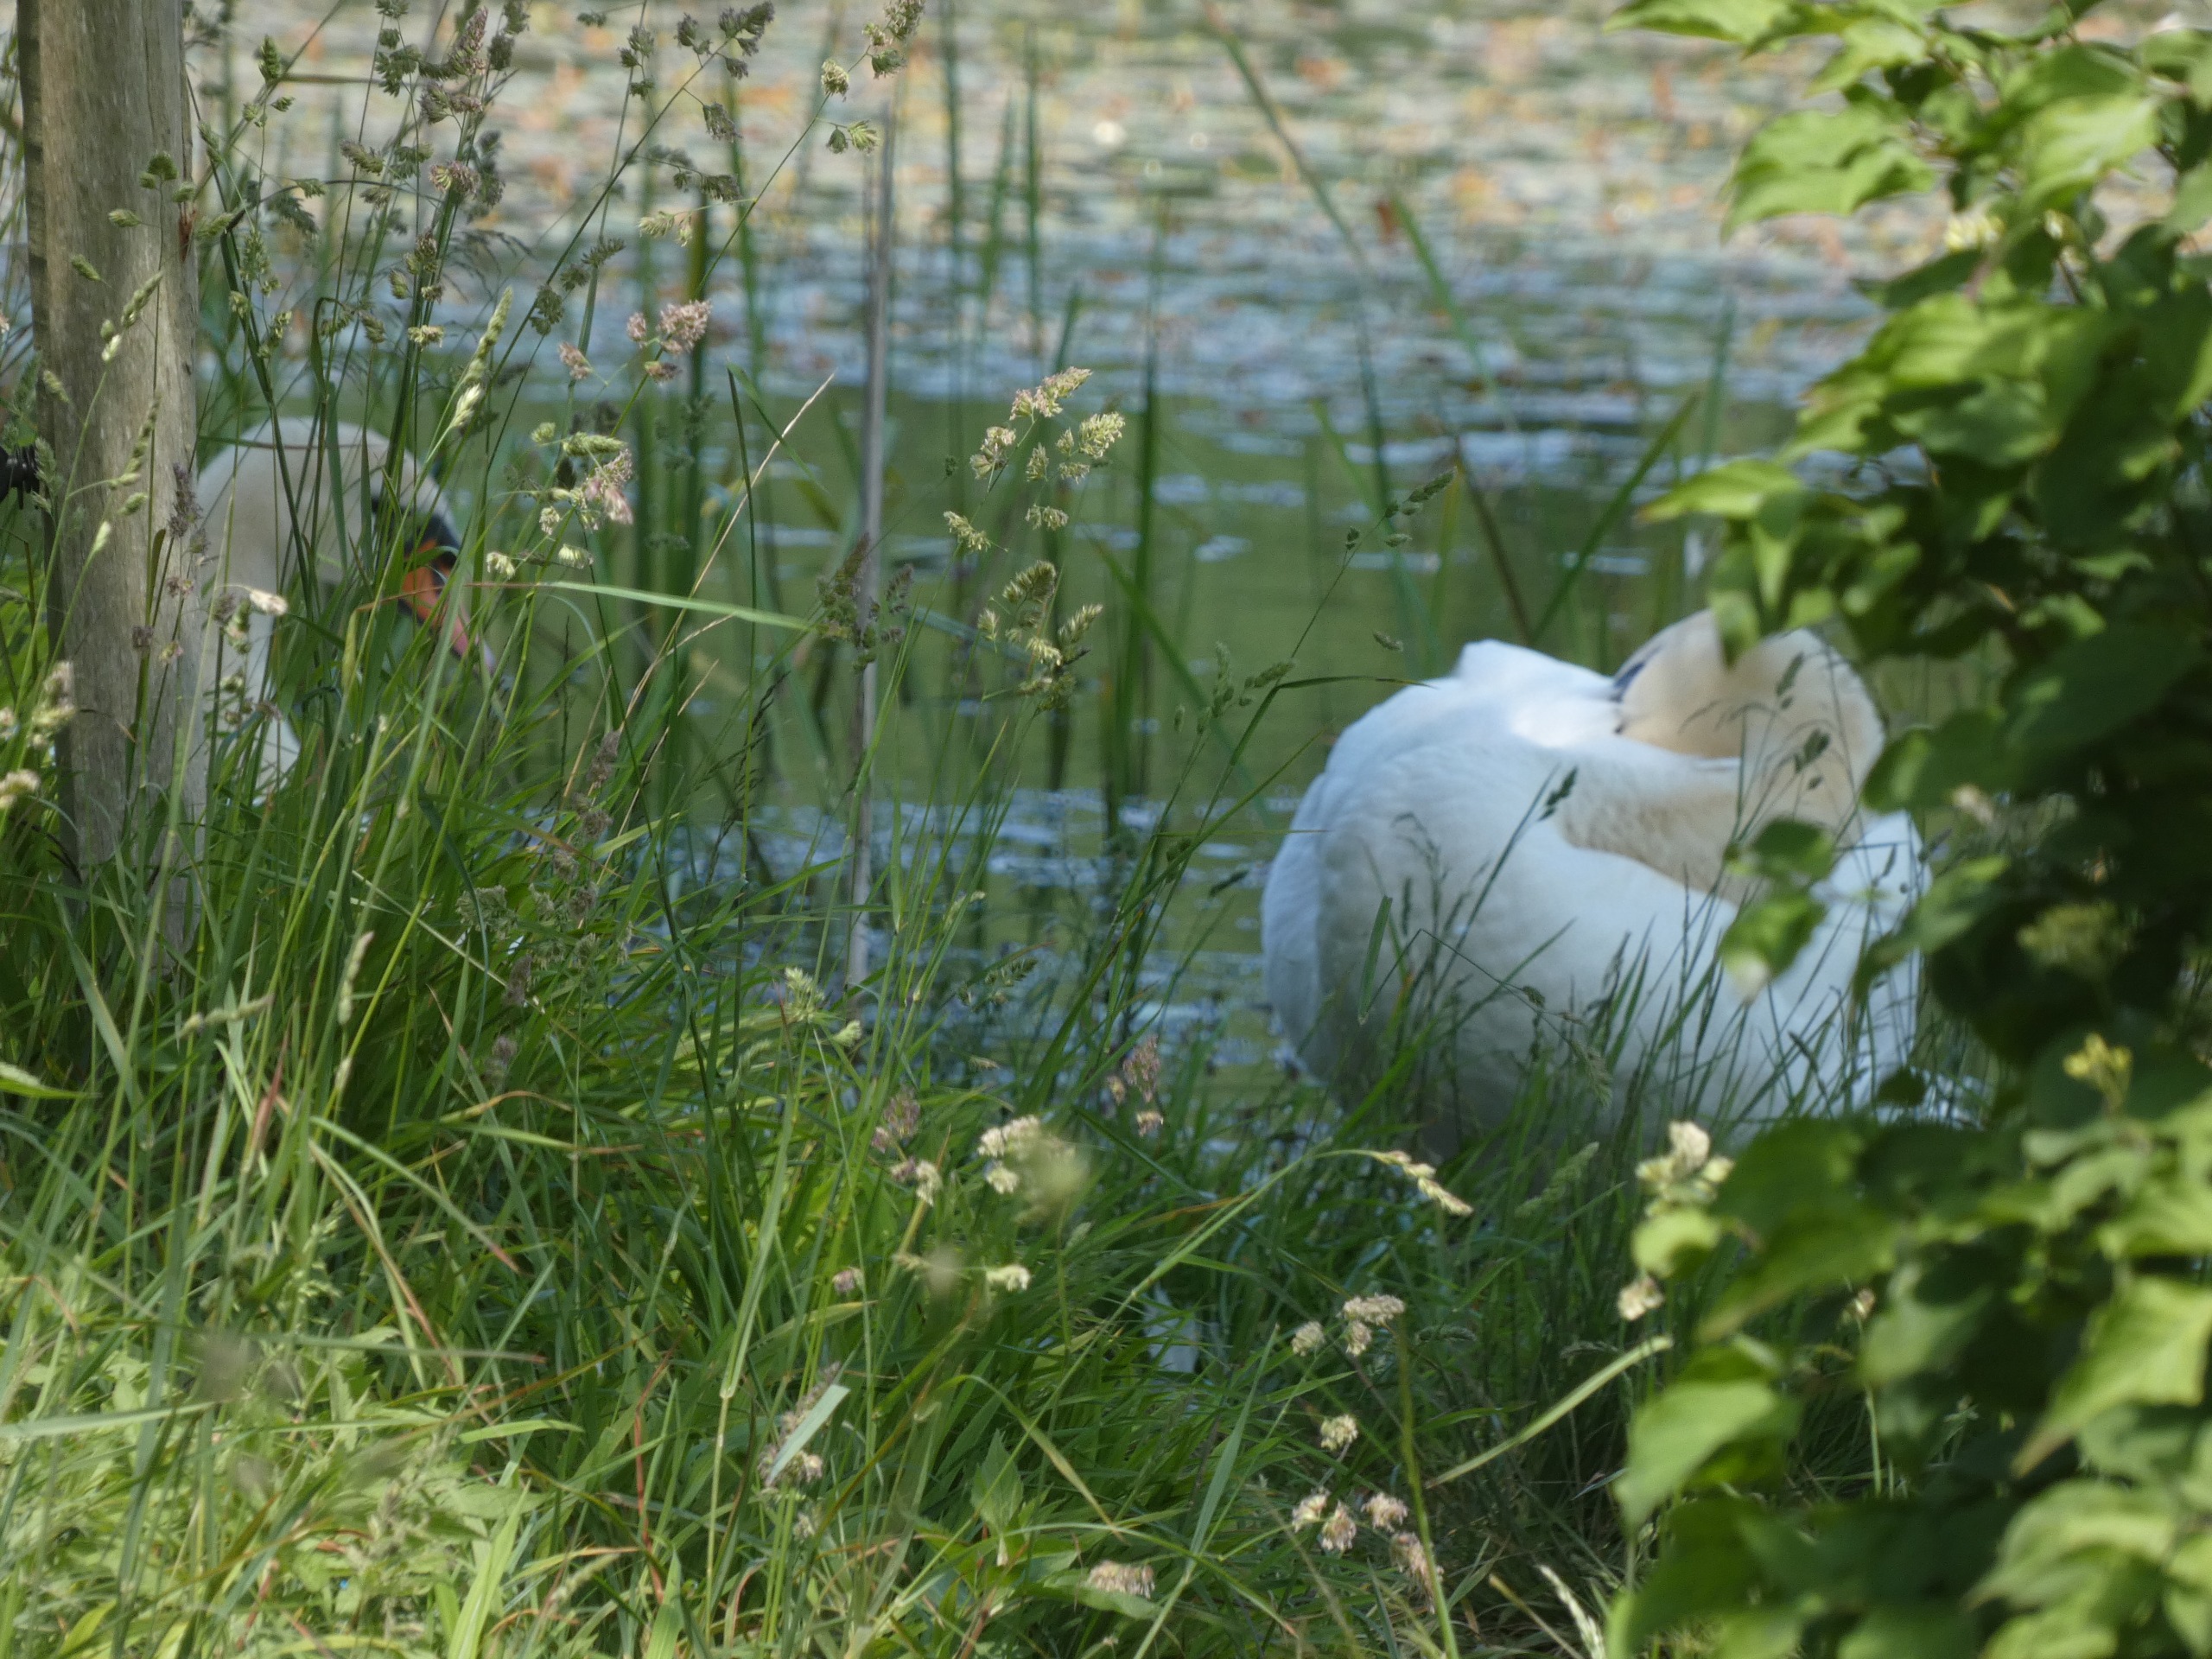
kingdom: Animalia
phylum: Chordata
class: Aves
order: Anseriformes
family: Anatidae
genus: Cygnus
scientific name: Cygnus olor
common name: Knopsvane
